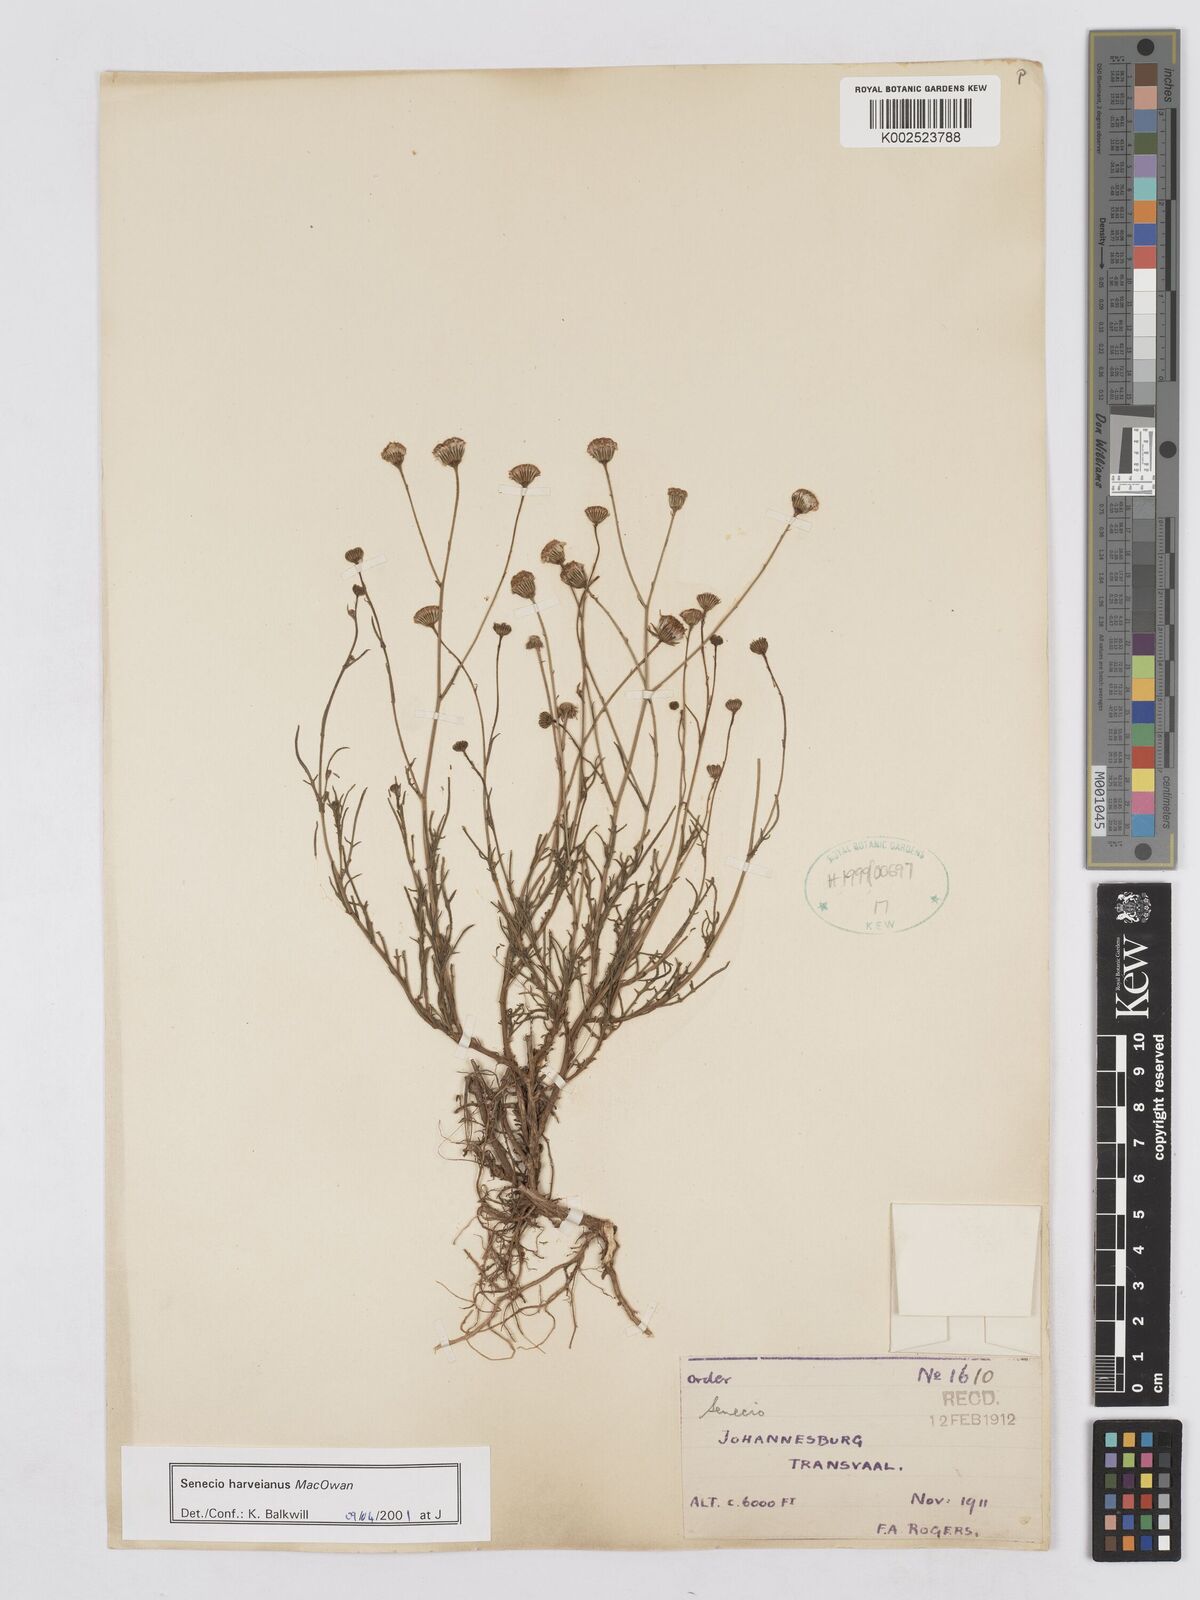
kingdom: Plantae
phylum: Tracheophyta
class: Magnoliopsida
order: Asterales
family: Asteraceae
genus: Senecio
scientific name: Senecio harveyanus
